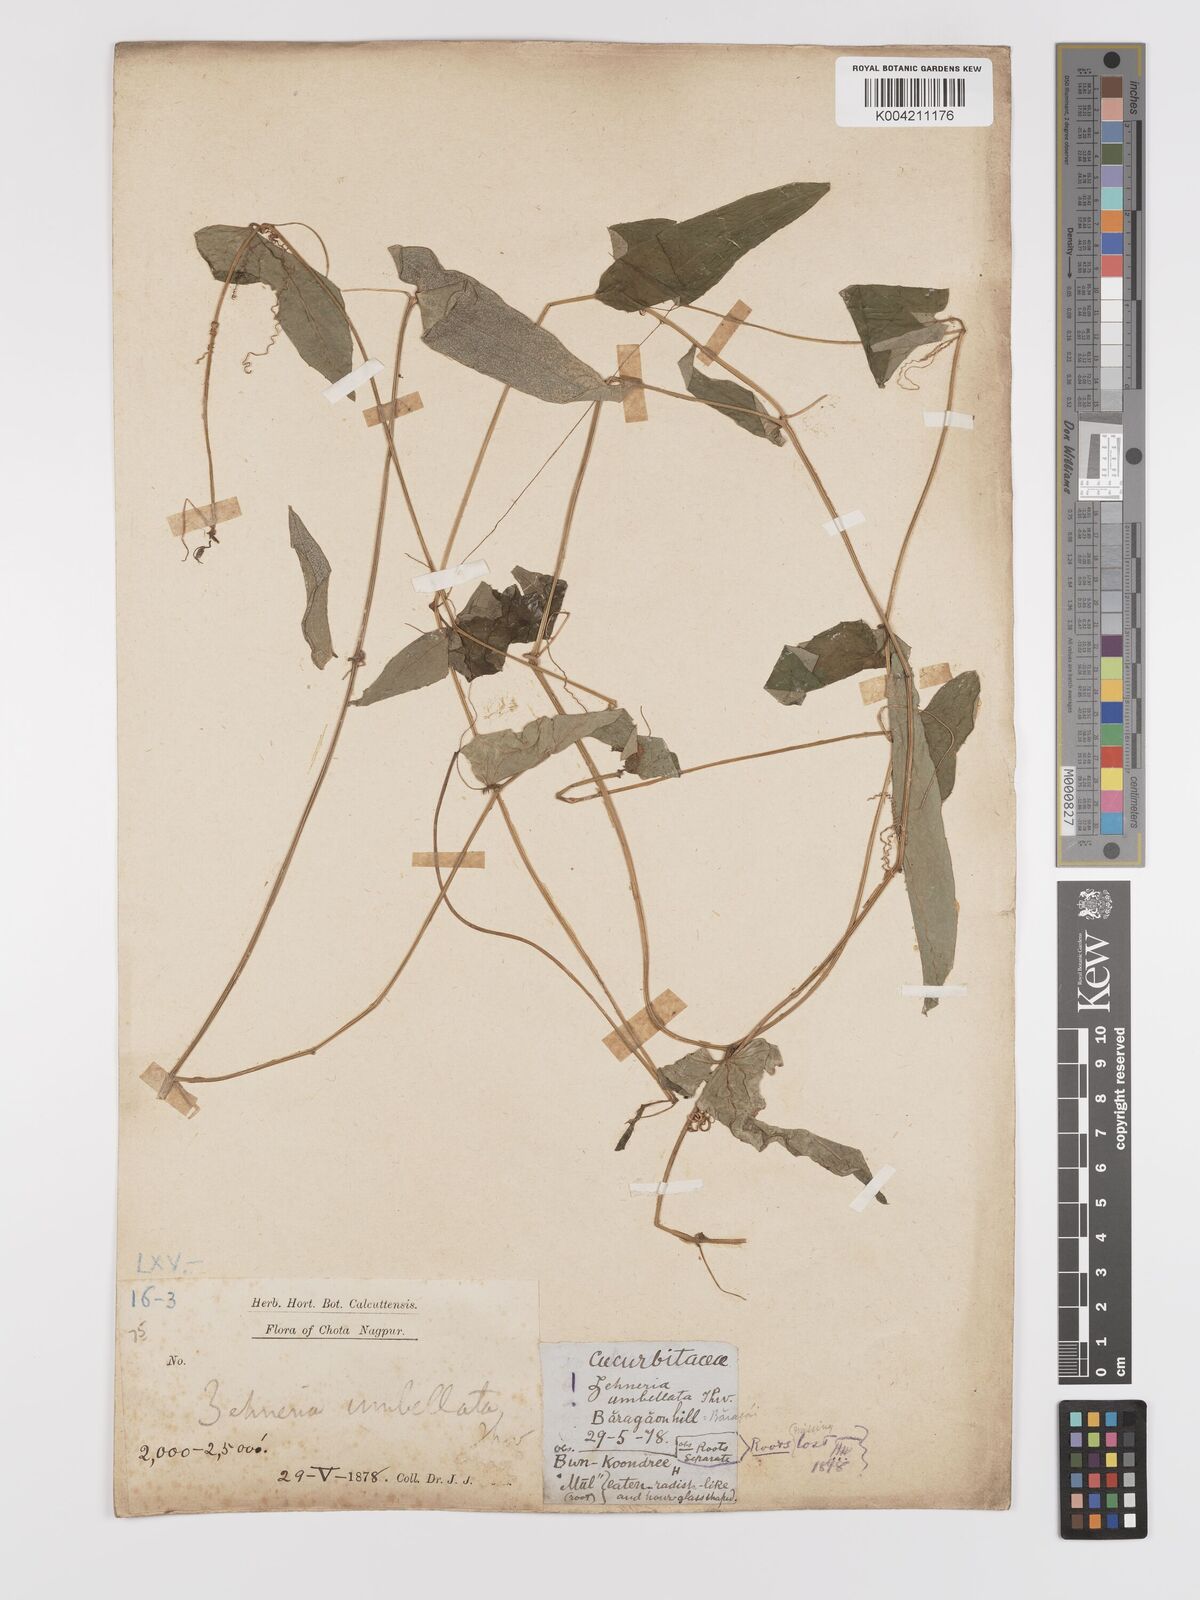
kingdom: Plantae
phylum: Tracheophyta
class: Magnoliopsida
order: Cucurbitales
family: Cucurbitaceae
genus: Solena
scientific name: Solena amplexicaulis
